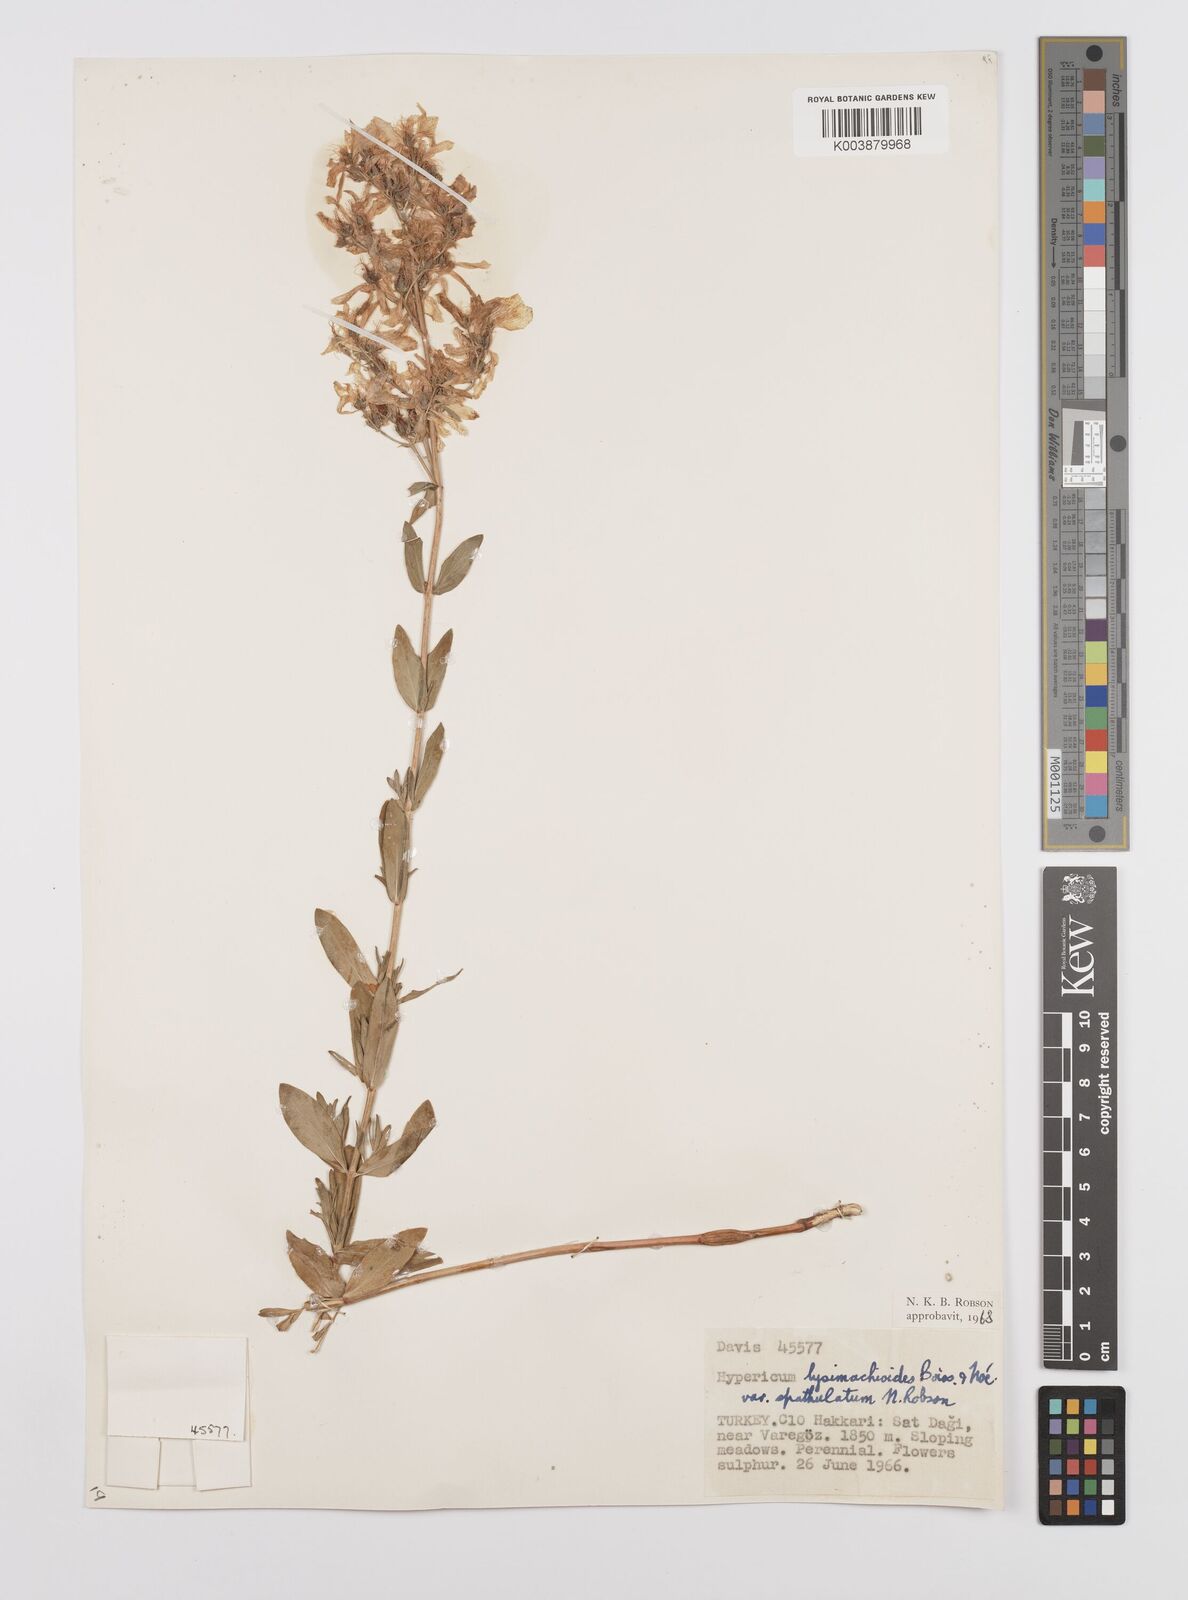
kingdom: Plantae
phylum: Tracheophyta
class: Magnoliopsida
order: Malpighiales
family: Hypericaceae
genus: Hypericum
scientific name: Hypericum lysimachioides
